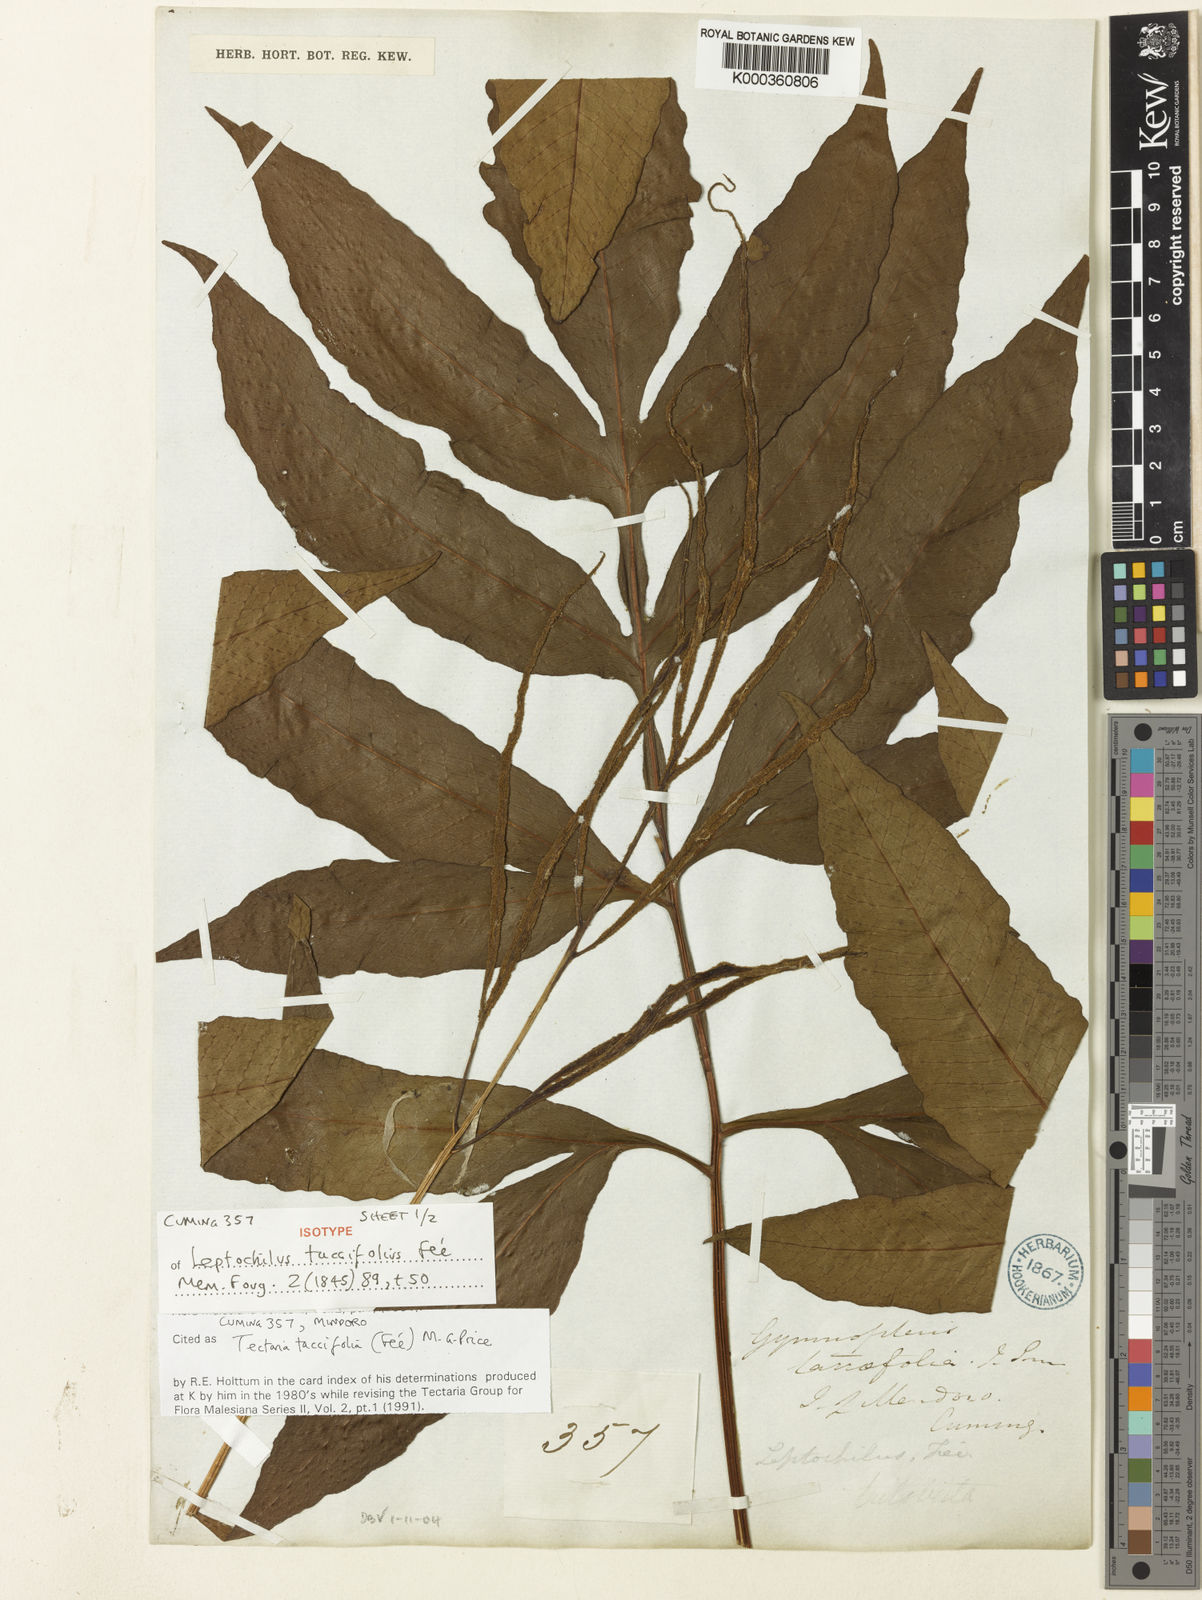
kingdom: Plantae
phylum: Tracheophyta
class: Polypodiopsida
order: Polypodiales
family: Tectariaceae
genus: Tectaria
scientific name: Tectaria
